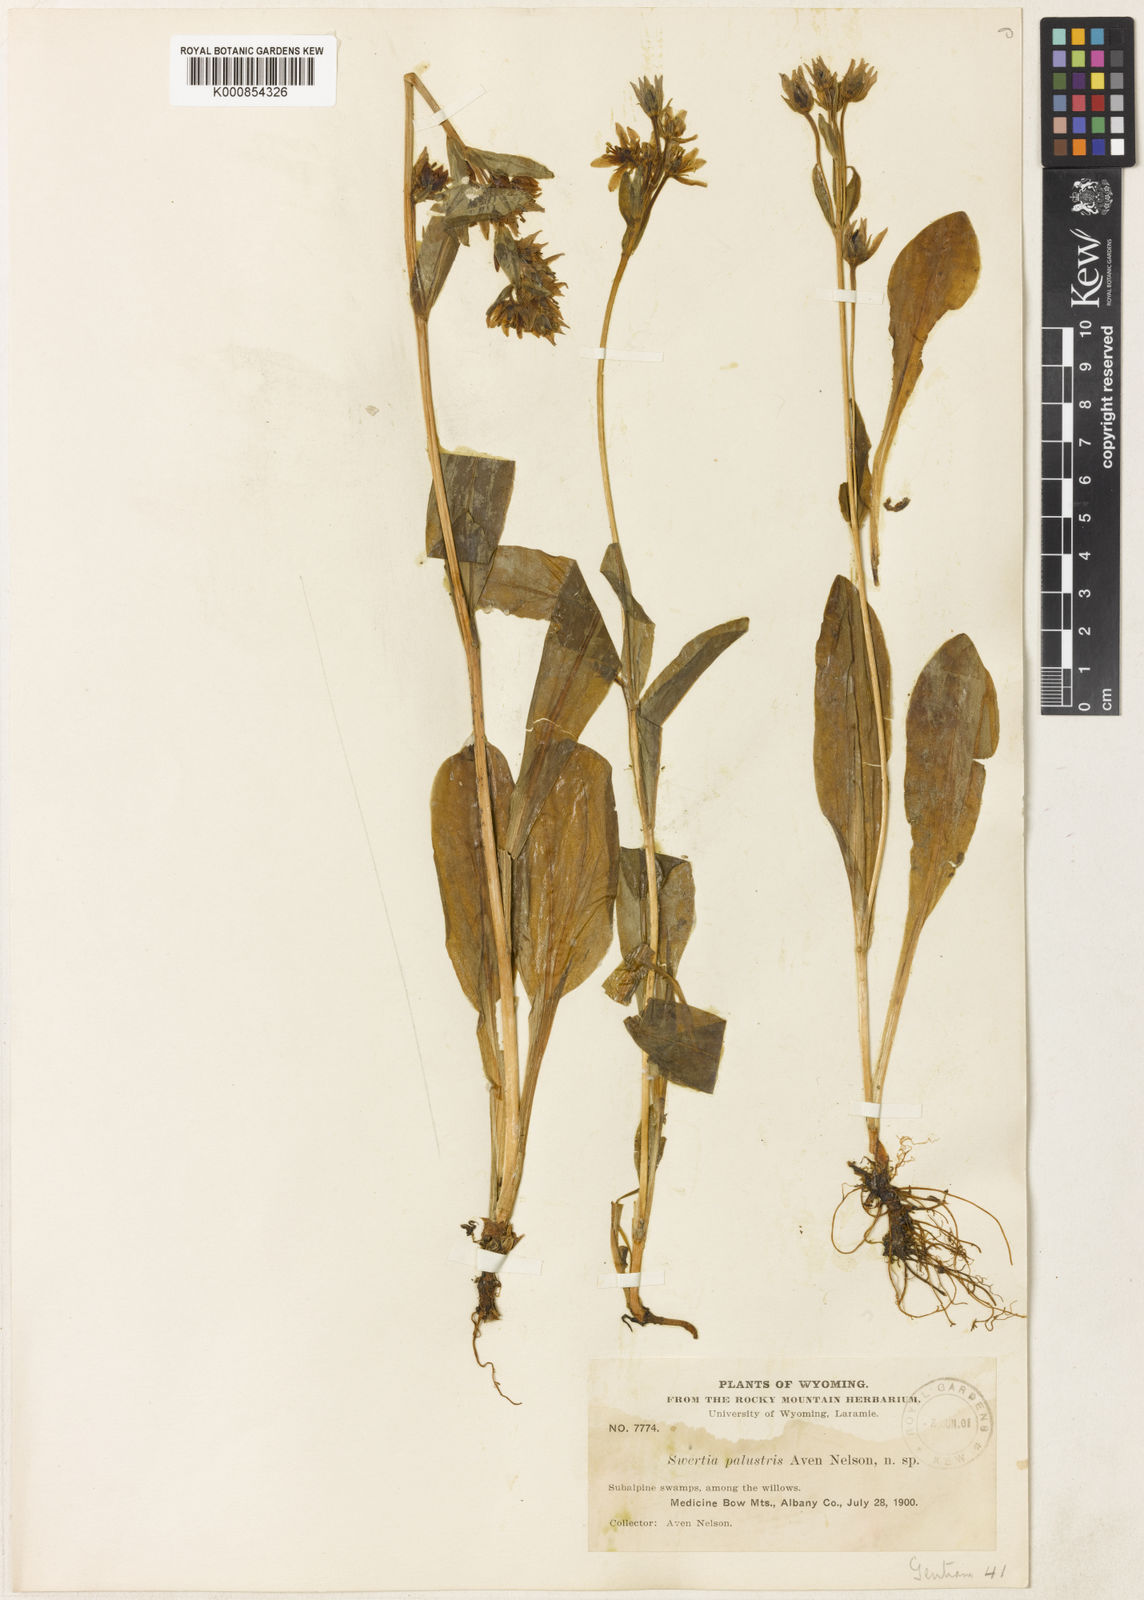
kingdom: Plantae
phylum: Tracheophyta
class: Magnoliopsida
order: Gentianales
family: Gentianaceae
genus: Swertia
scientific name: Swertia perennis
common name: Alpine bog swertia
